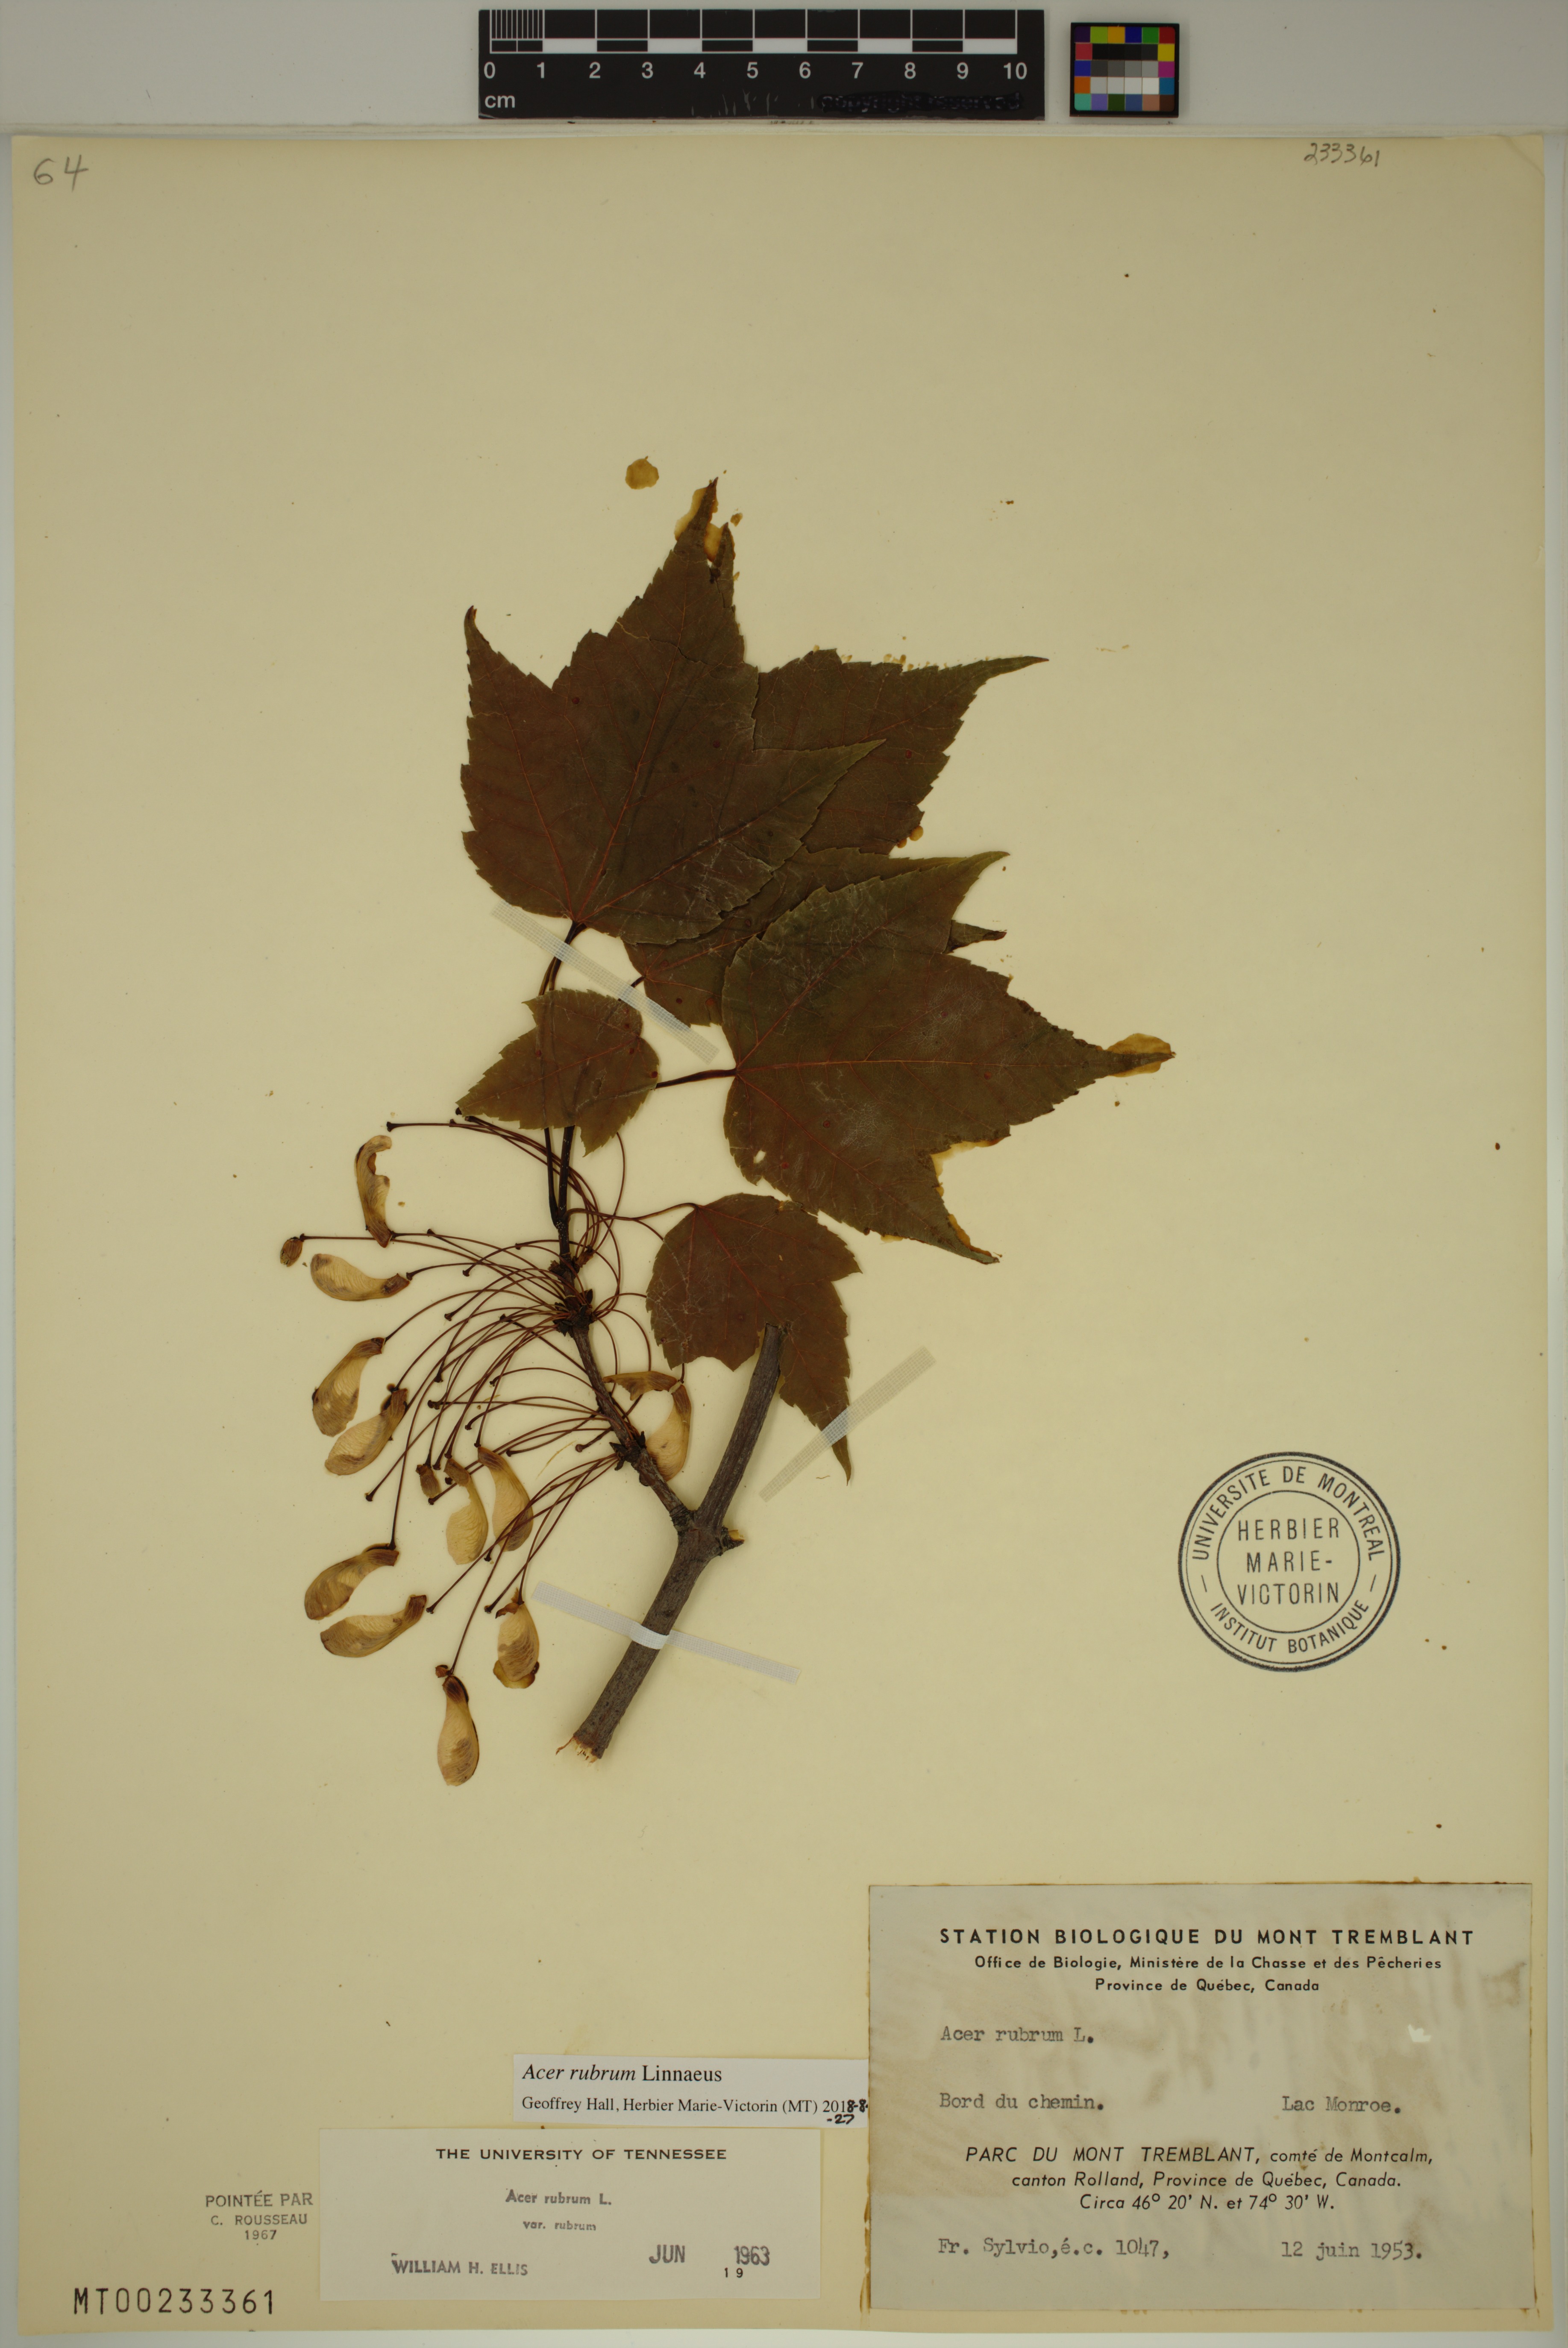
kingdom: Plantae
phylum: Tracheophyta
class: Magnoliopsida
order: Sapindales
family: Sapindaceae
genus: Acer
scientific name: Acer rubrum
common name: Red maple
